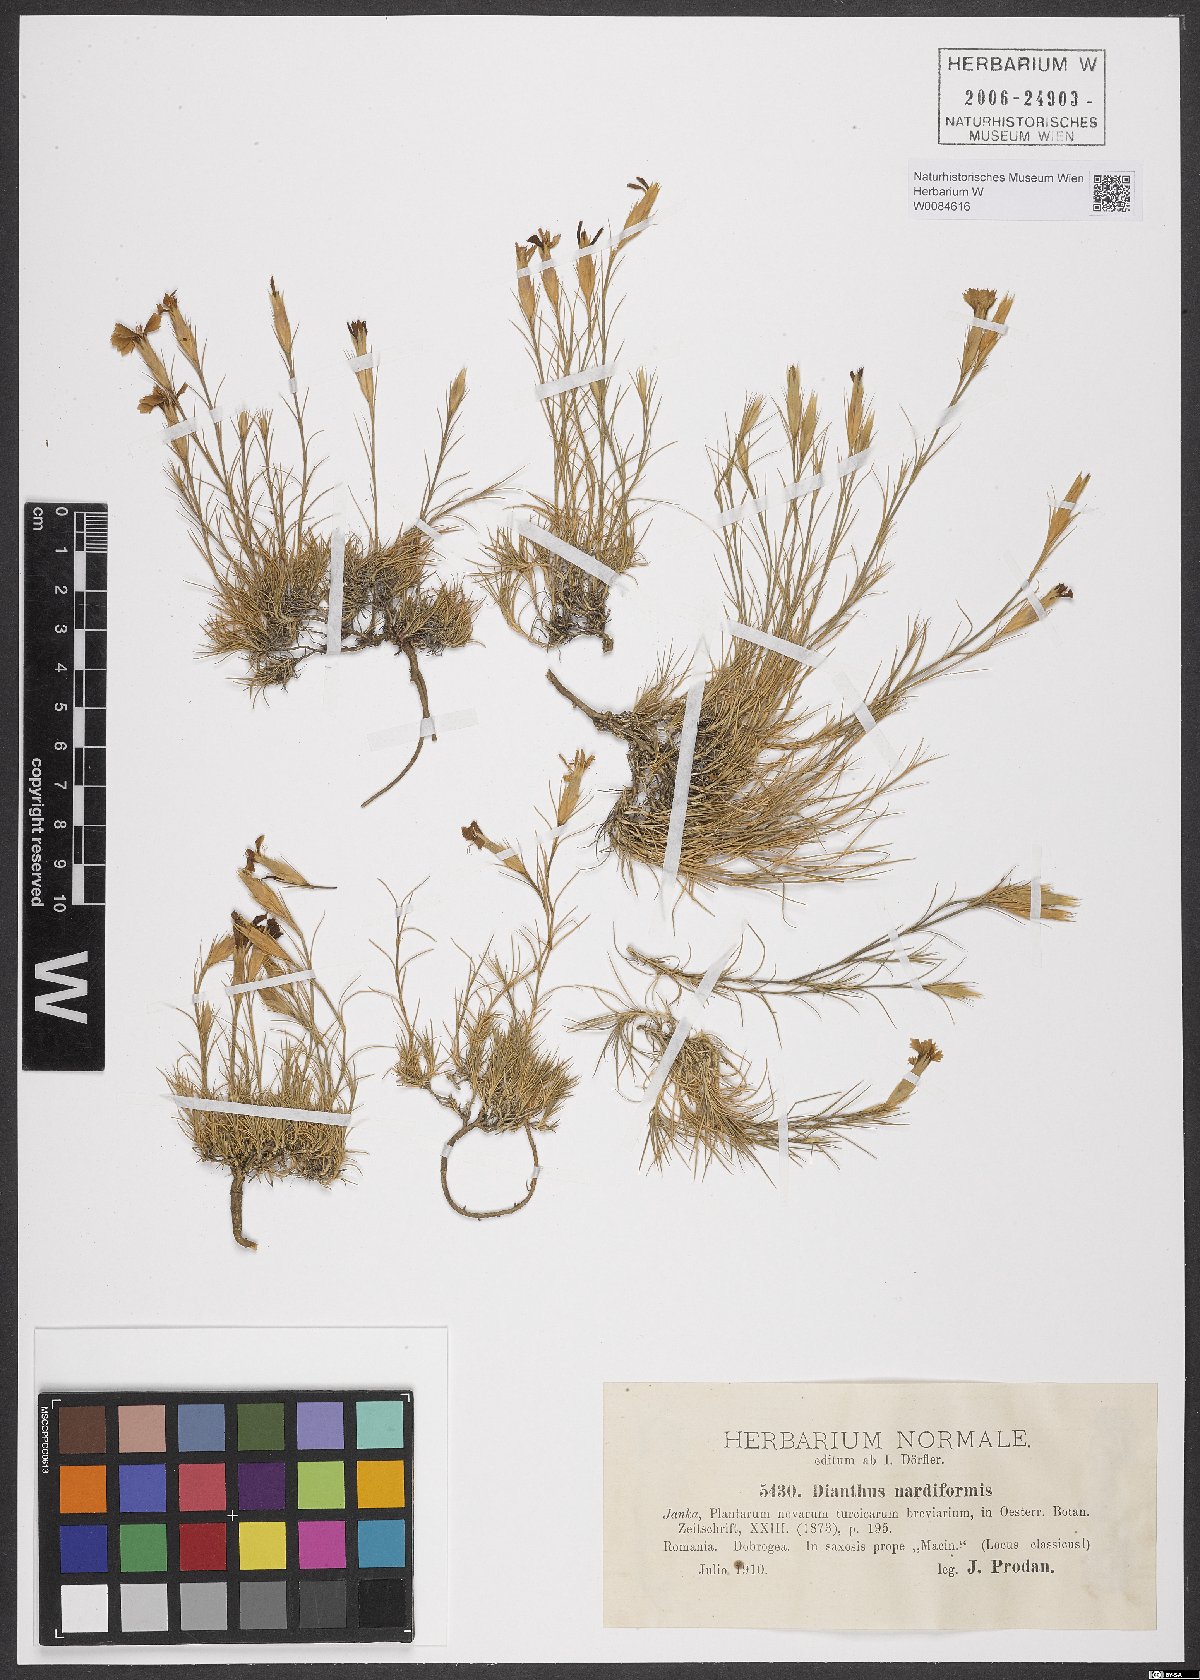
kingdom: Plantae
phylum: Tracheophyta
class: Magnoliopsida
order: Caryophyllales
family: Caryophyllaceae
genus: Dianthus
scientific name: Dianthus nardiformis
